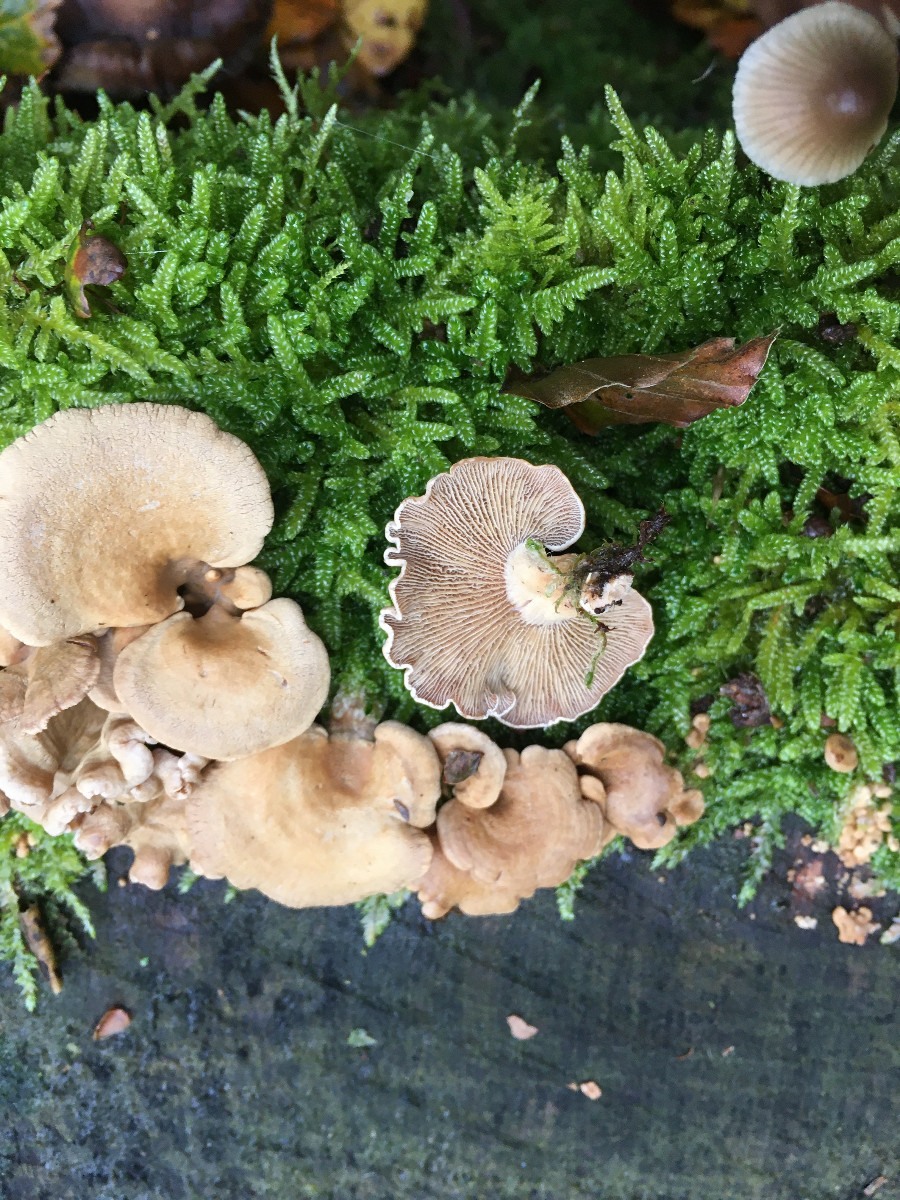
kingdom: Fungi
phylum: Basidiomycota
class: Agaricomycetes
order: Agaricales
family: Mycenaceae
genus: Panellus
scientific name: Panellus stipticus
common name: kliddet epaulethat
